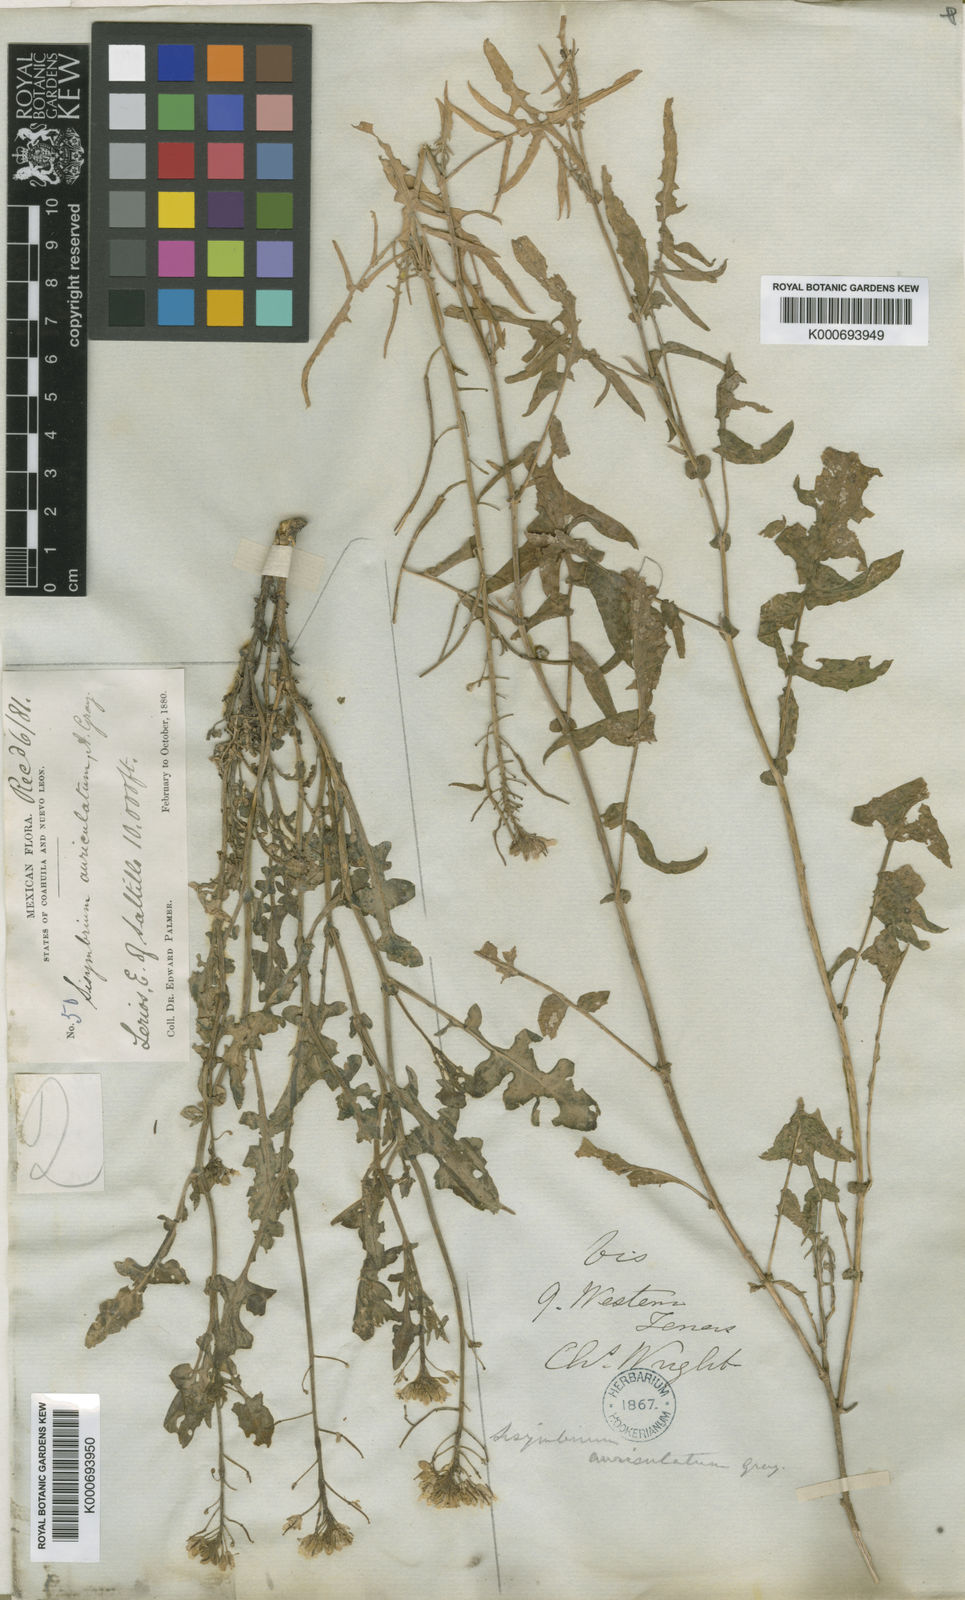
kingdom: Plantae
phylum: Tracheophyta
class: Magnoliopsida
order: Brassicales
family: Brassicaceae
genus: Dryopetalon
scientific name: Dryopetalon auriculatum
